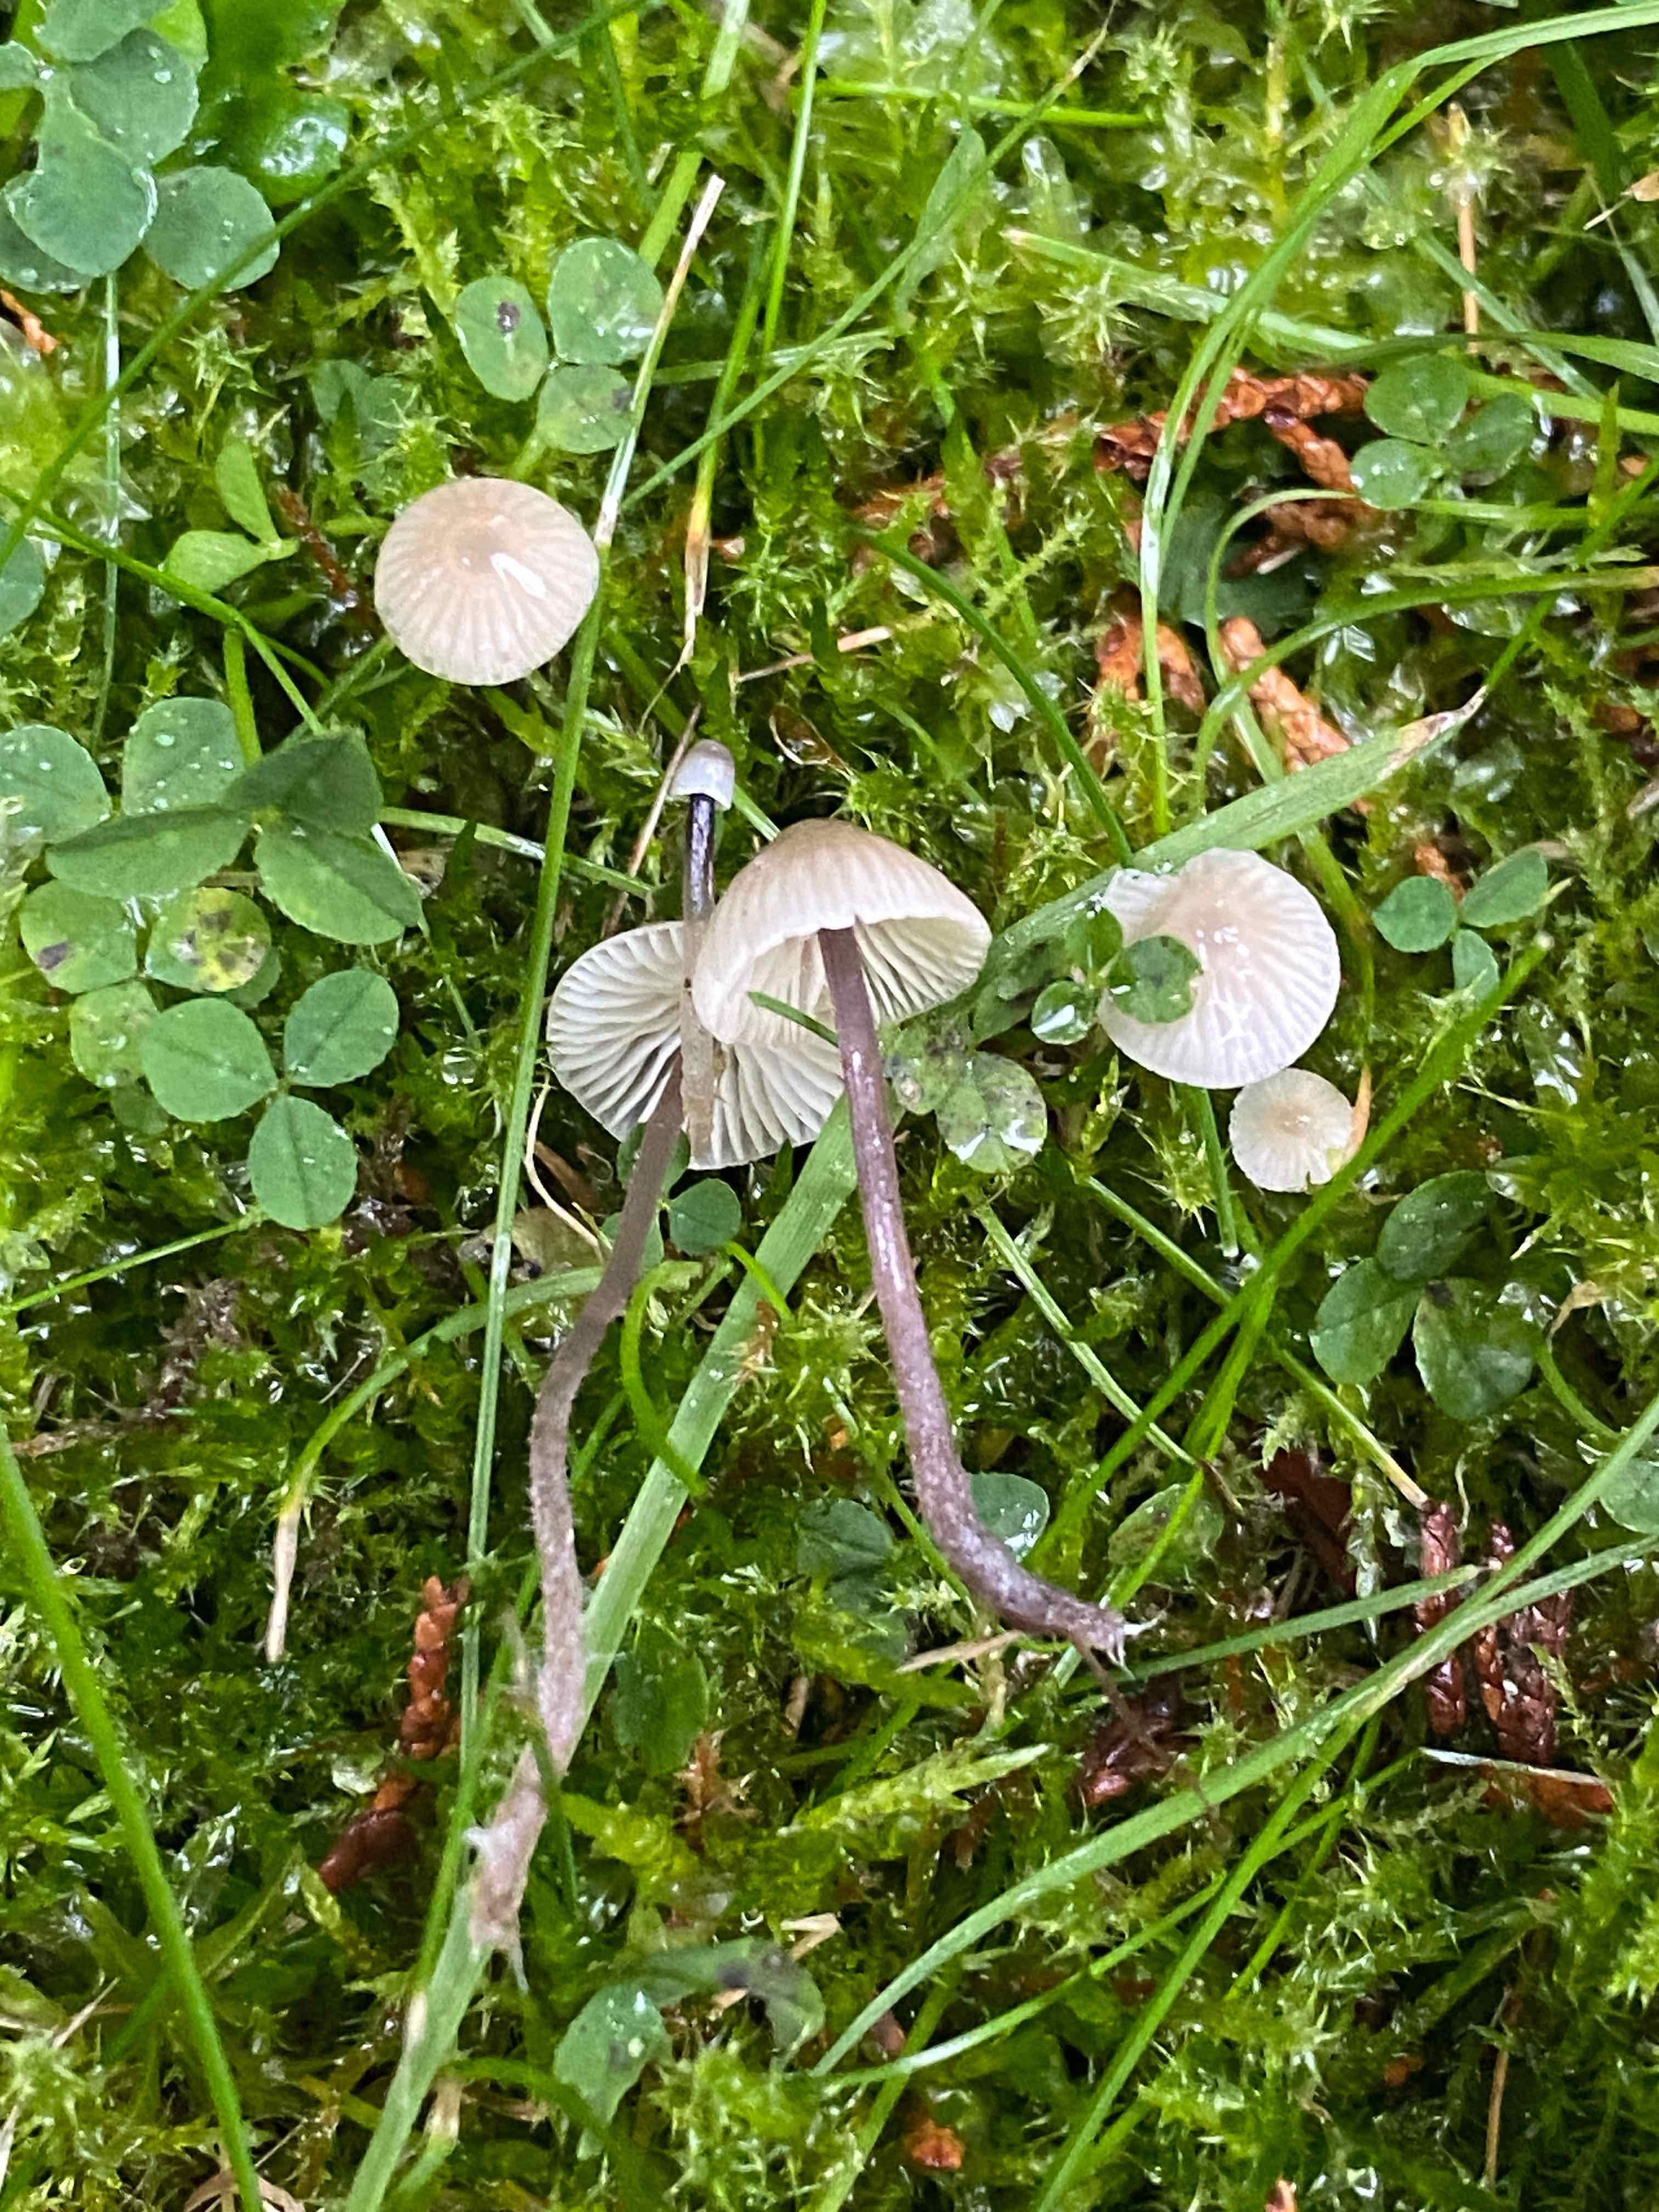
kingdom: Fungi
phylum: Basidiomycota
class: Agaricomycetes
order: Agaricales
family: Mycenaceae
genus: Mycena
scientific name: Mycena flavescens
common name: grågul huesvamp
